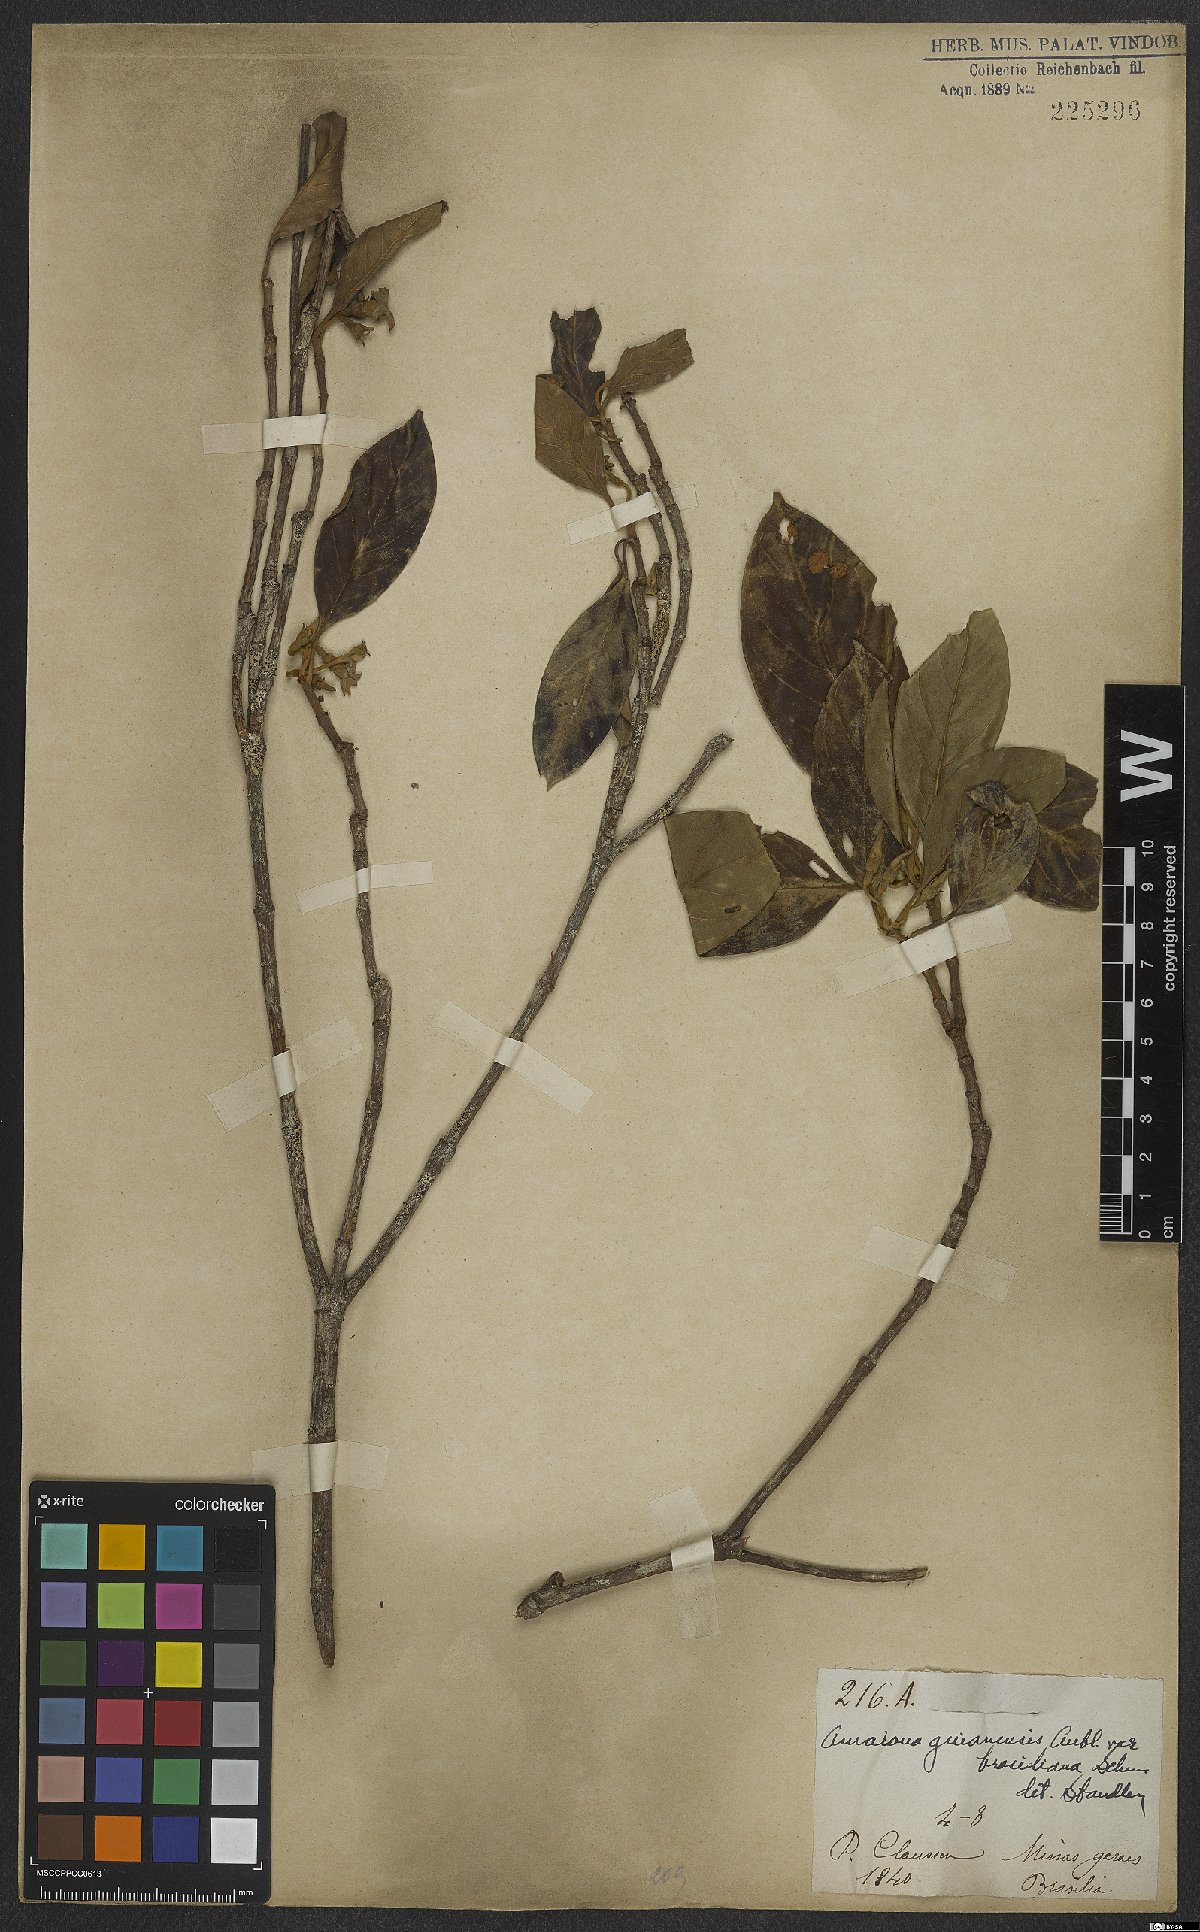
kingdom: Plantae
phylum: Tracheophyta
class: Magnoliopsida
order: Gentianales
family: Rubiaceae
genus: Amaioua
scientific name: Amaioua guianensis
